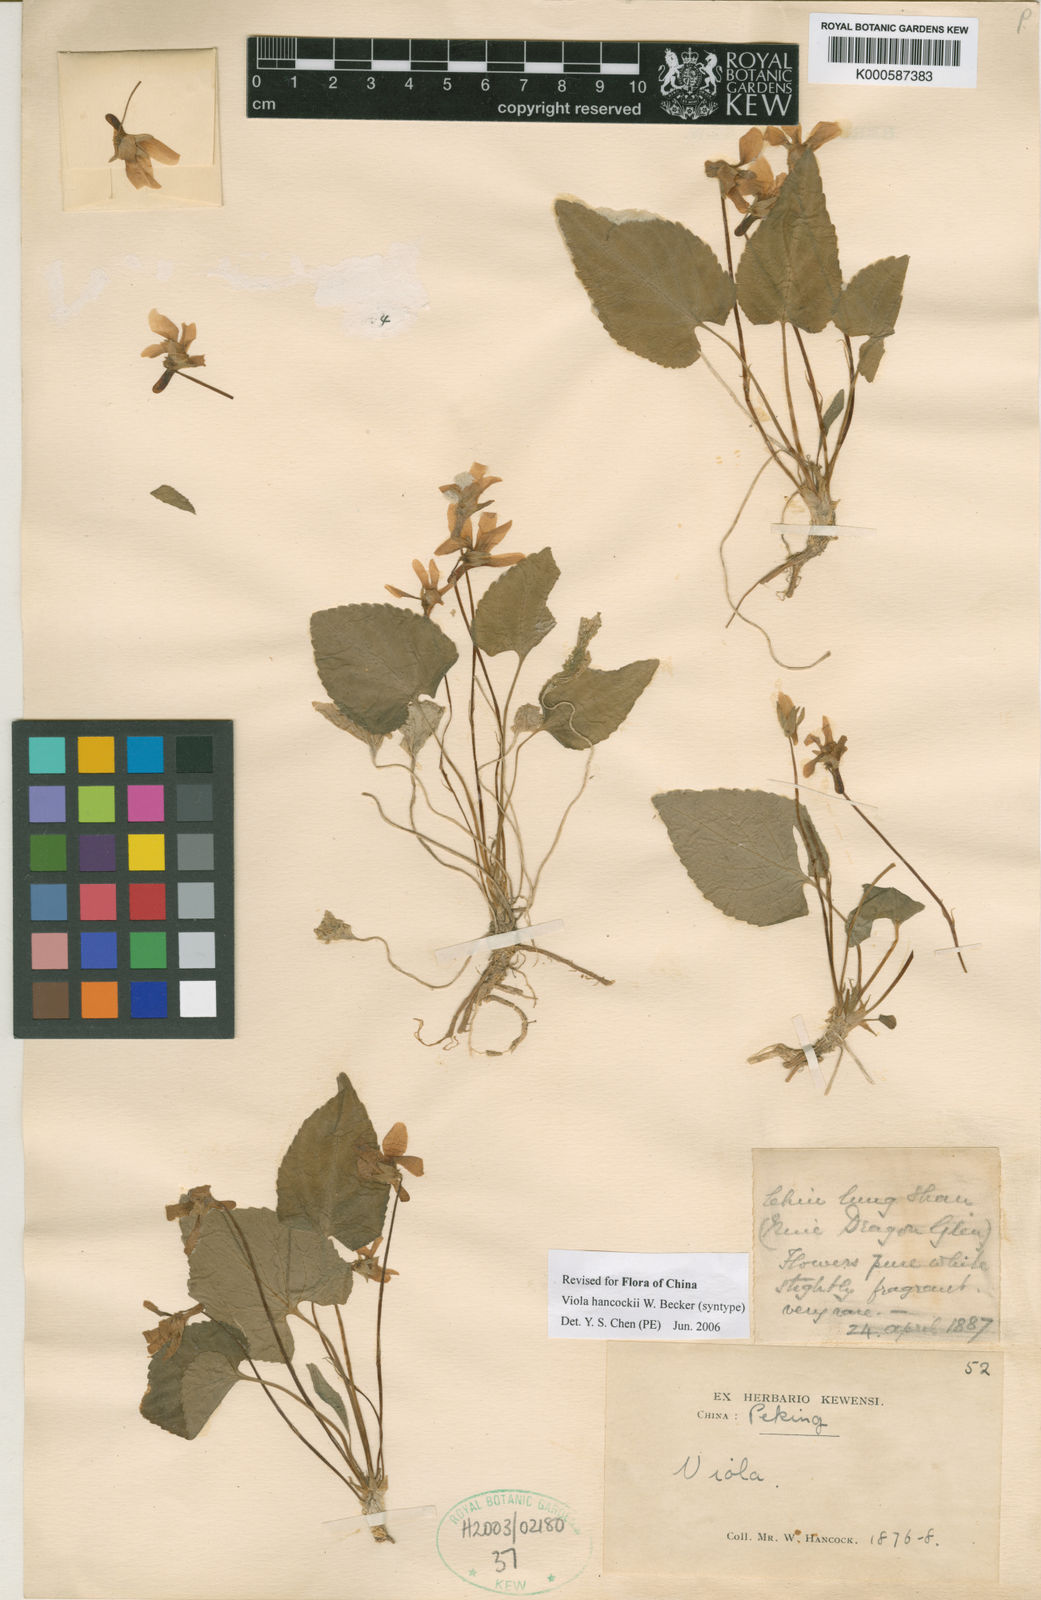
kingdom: Plantae
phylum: Tracheophyta
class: Magnoliopsida
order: Malpighiales
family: Violaceae
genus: Viola
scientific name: Viola hancockii
